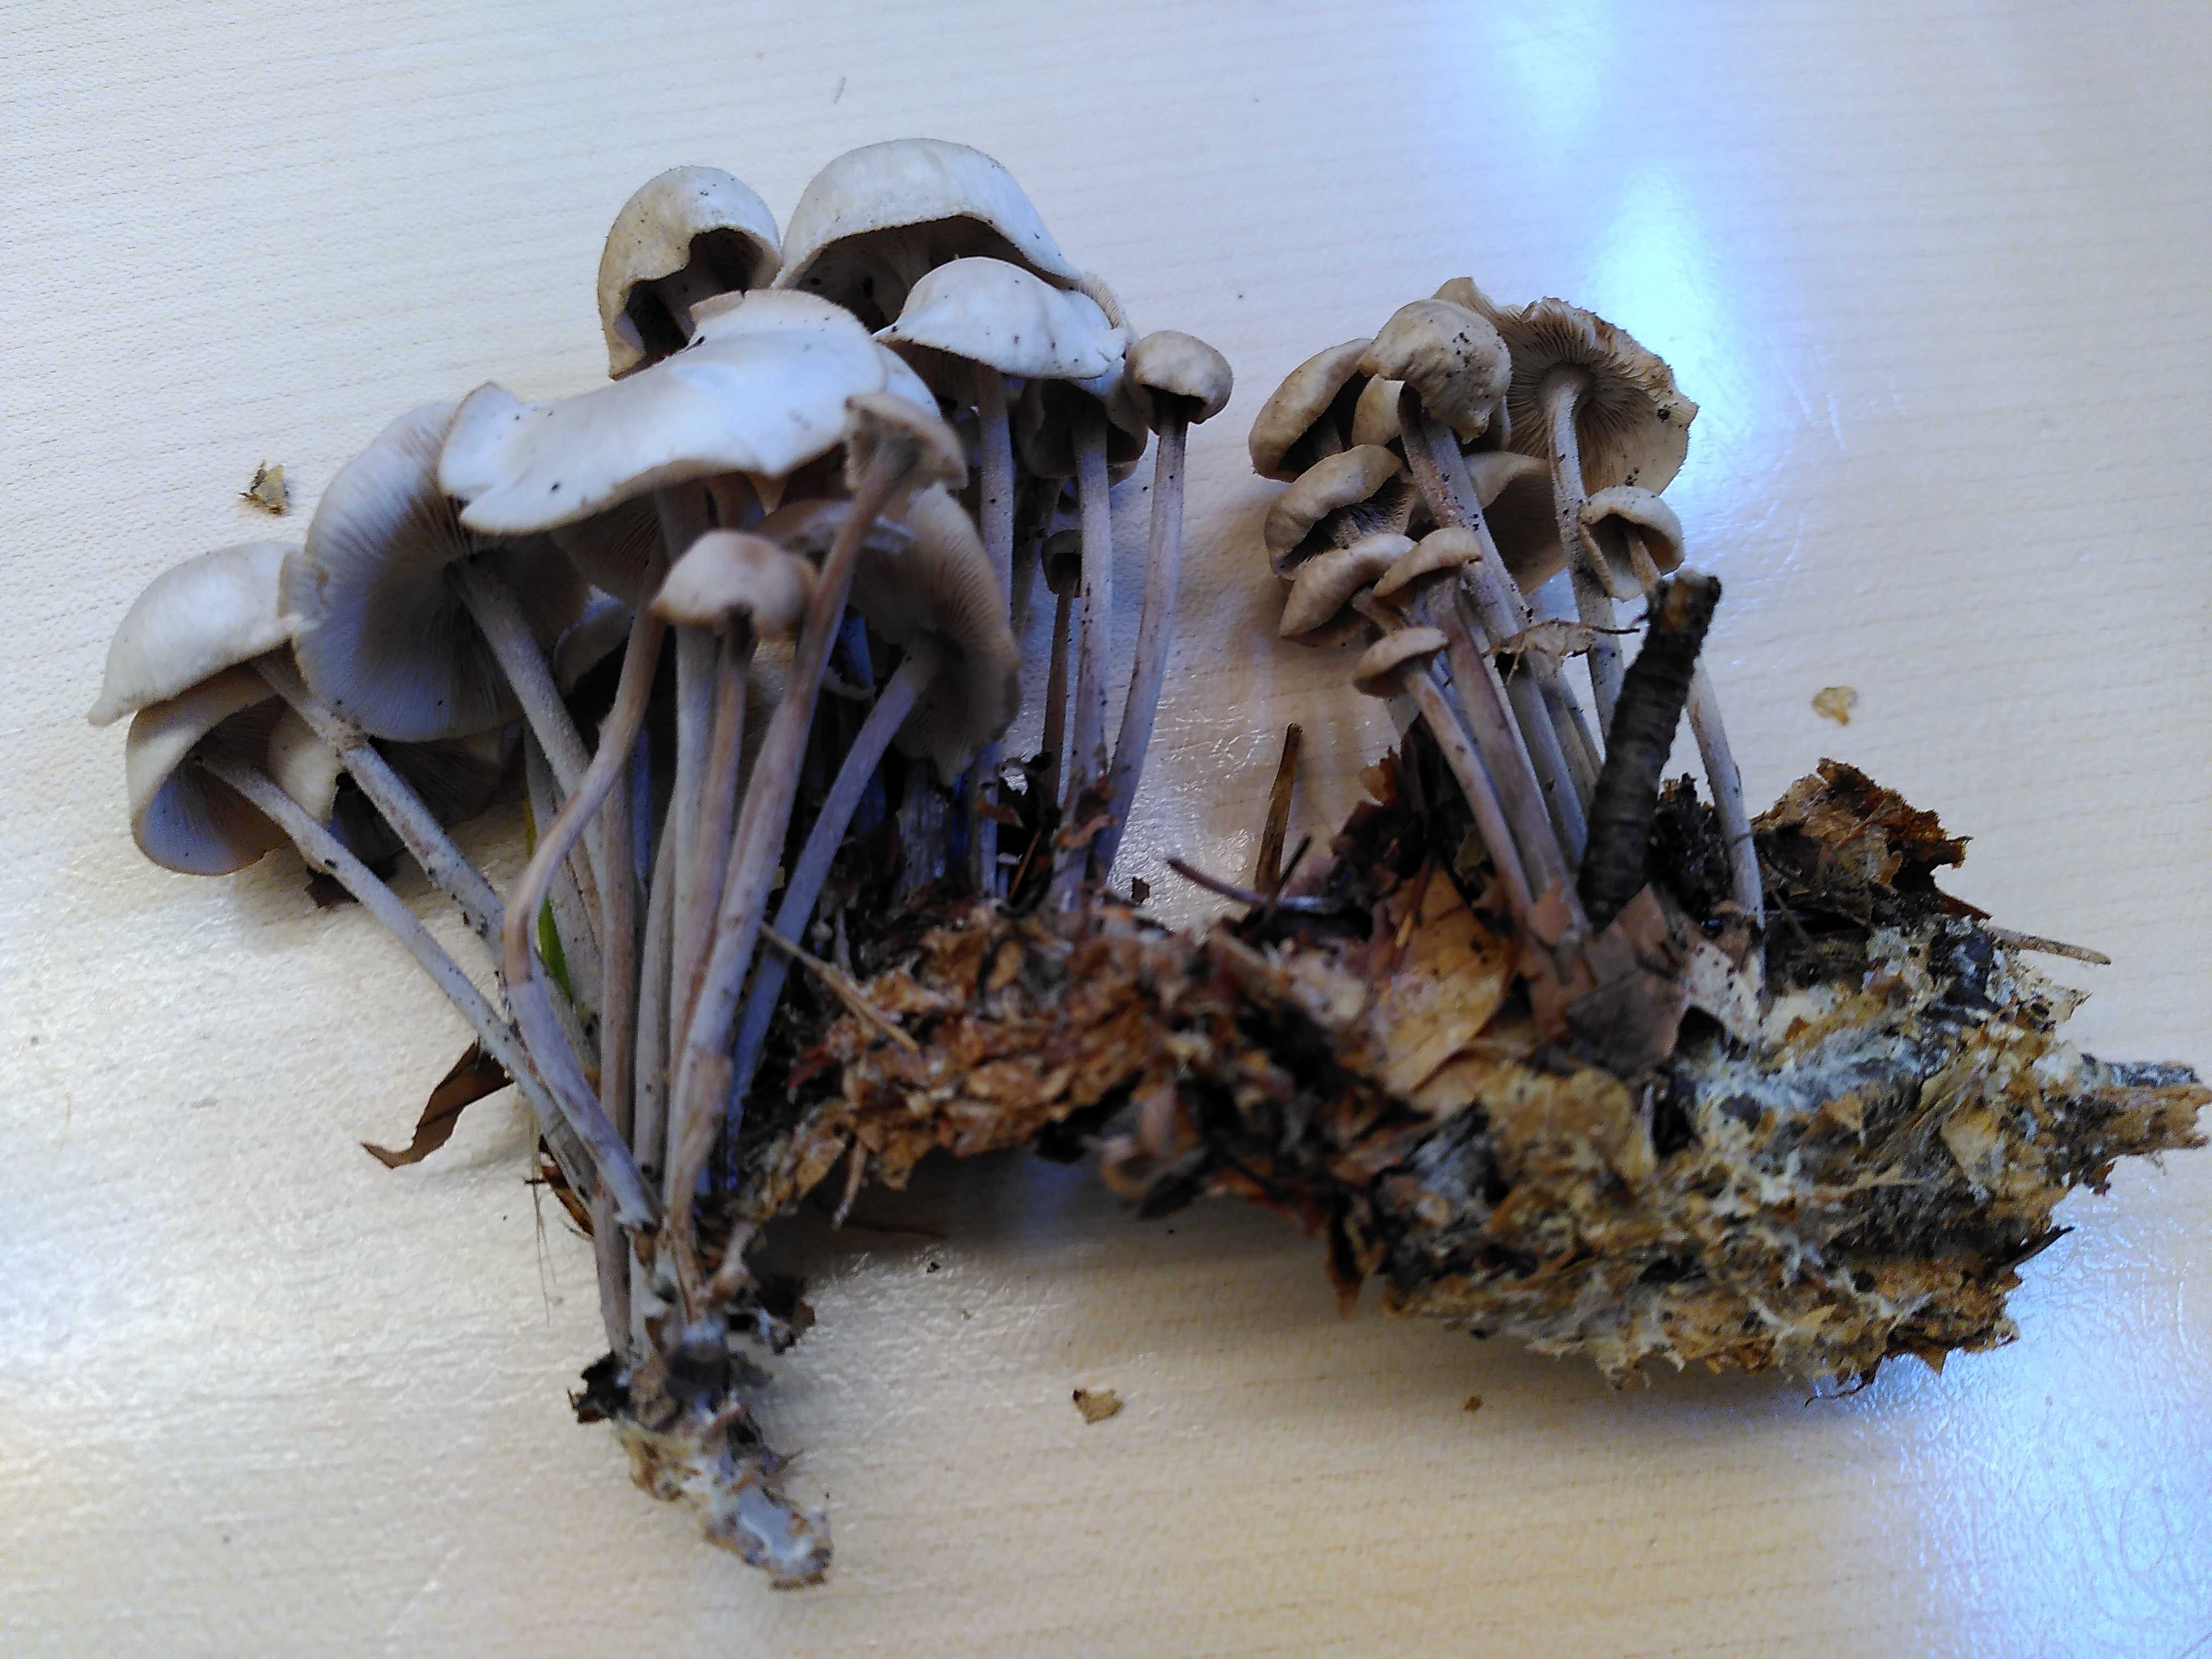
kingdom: Fungi
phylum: Basidiomycota
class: Agaricomycetes
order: Agaricales
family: Omphalotaceae
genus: Collybiopsis
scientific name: Collybiopsis confluens
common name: knippe-fladhat
